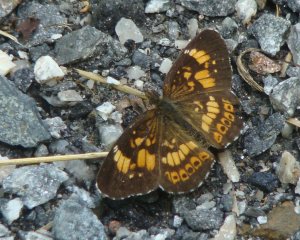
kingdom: Animalia
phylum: Arthropoda
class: Insecta
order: Lepidoptera
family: Nymphalidae
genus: Chlosyne
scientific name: Chlosyne nycteis
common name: Silvery Checkerspot
